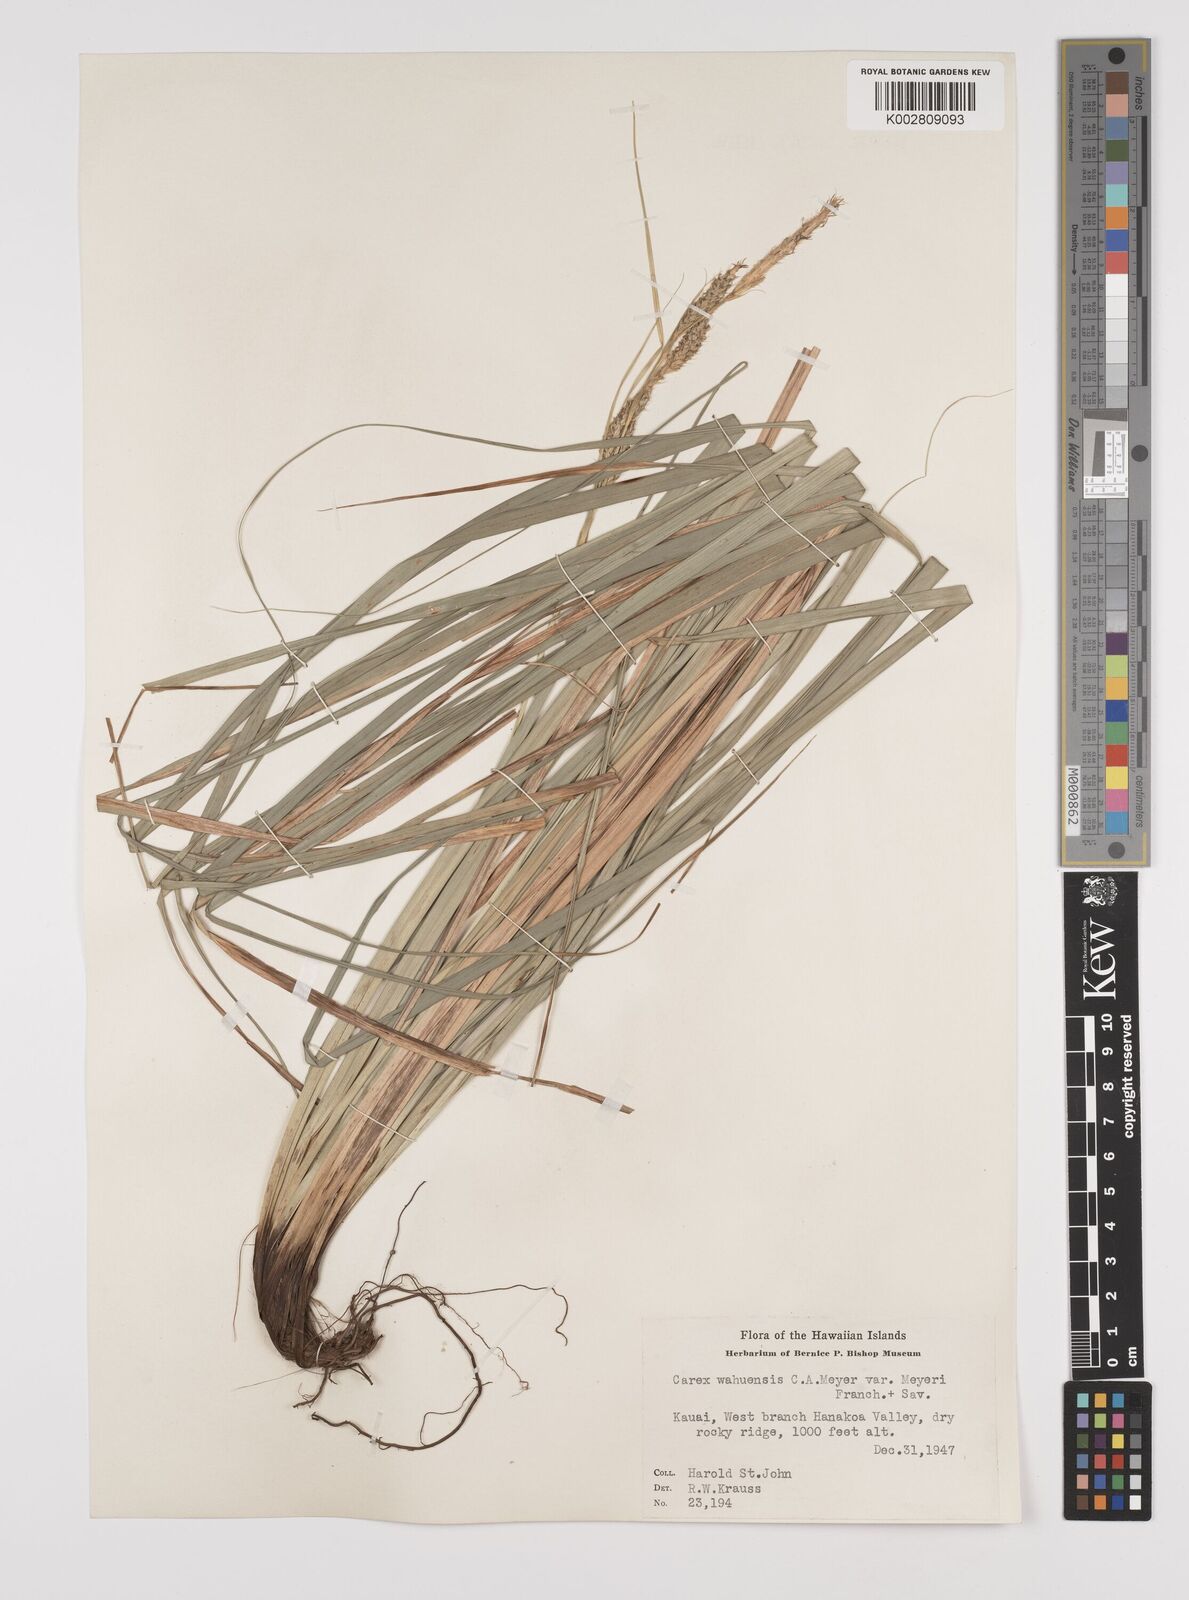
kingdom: Plantae
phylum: Tracheophyta
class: Liliopsida
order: Poales
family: Cyperaceae
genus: Carex
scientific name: Carex wahuensis
